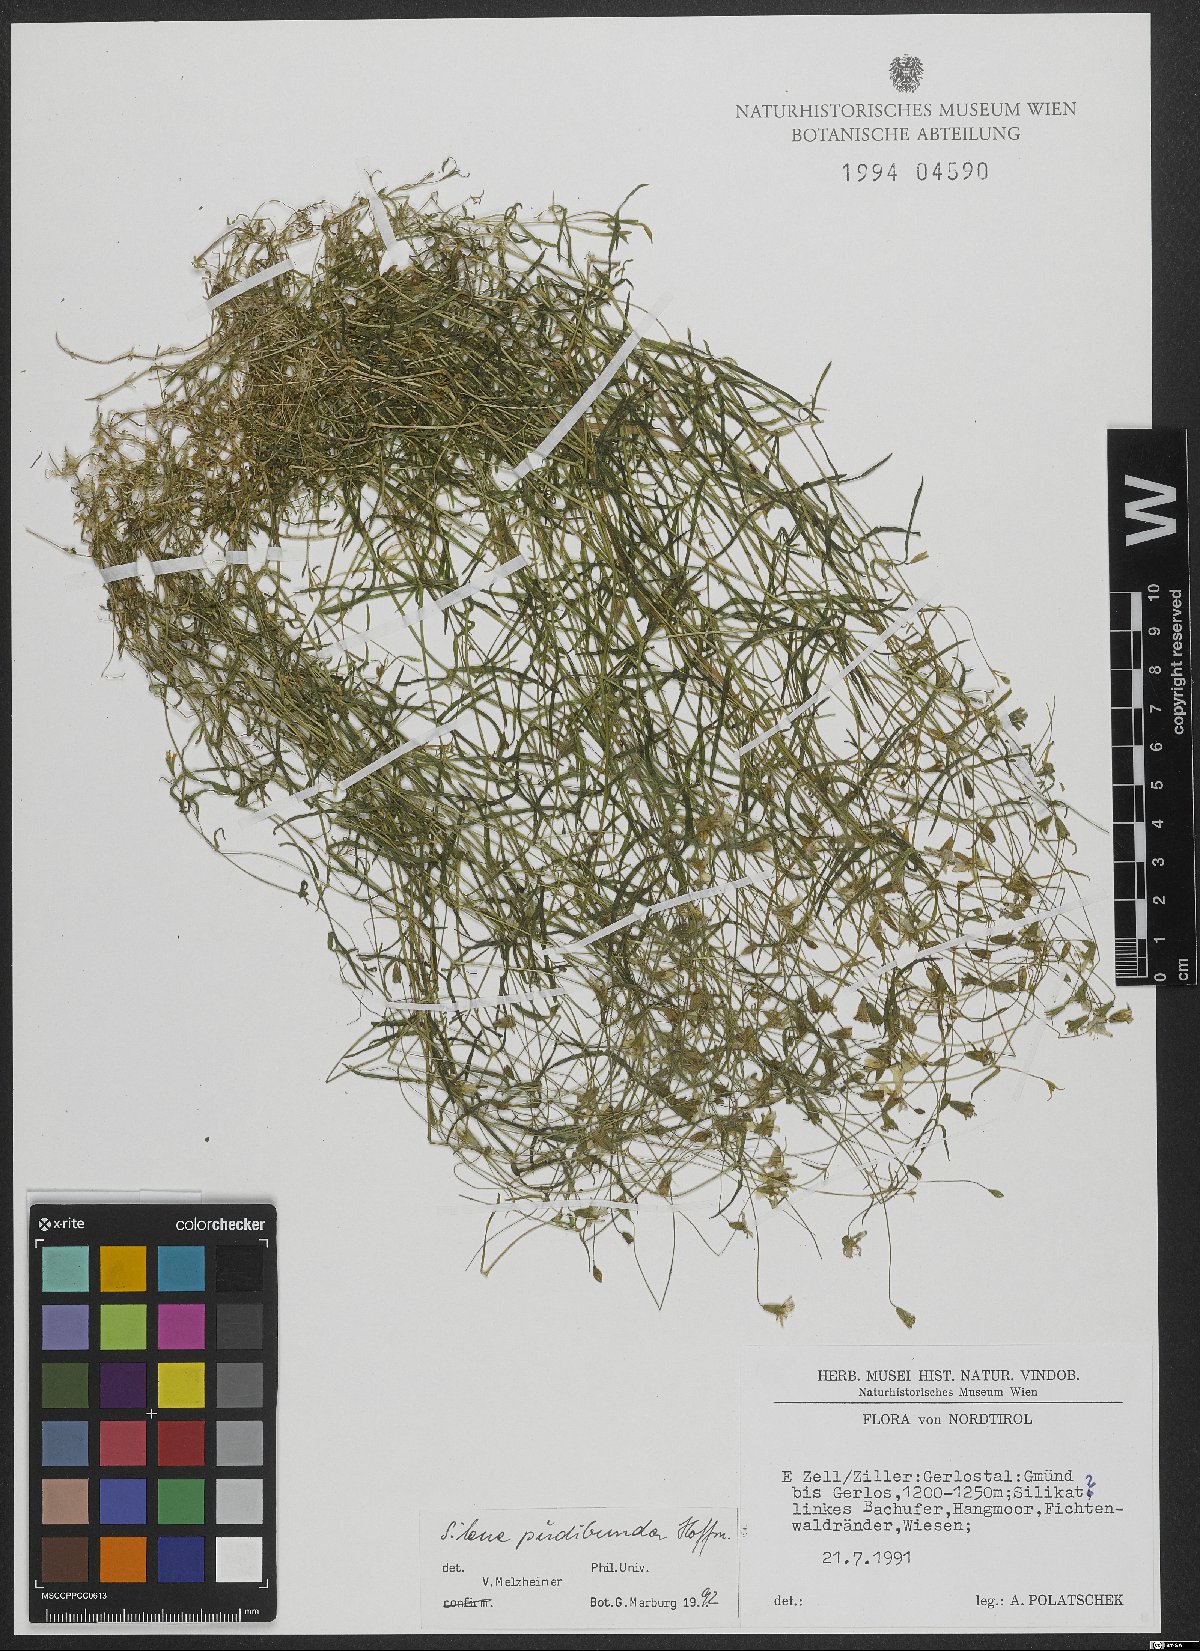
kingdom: Plantae
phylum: Tracheophyta
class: Magnoliopsida
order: Caryophyllales
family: Caryophyllaceae
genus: Heliosperma
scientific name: Heliosperma pudibundum
